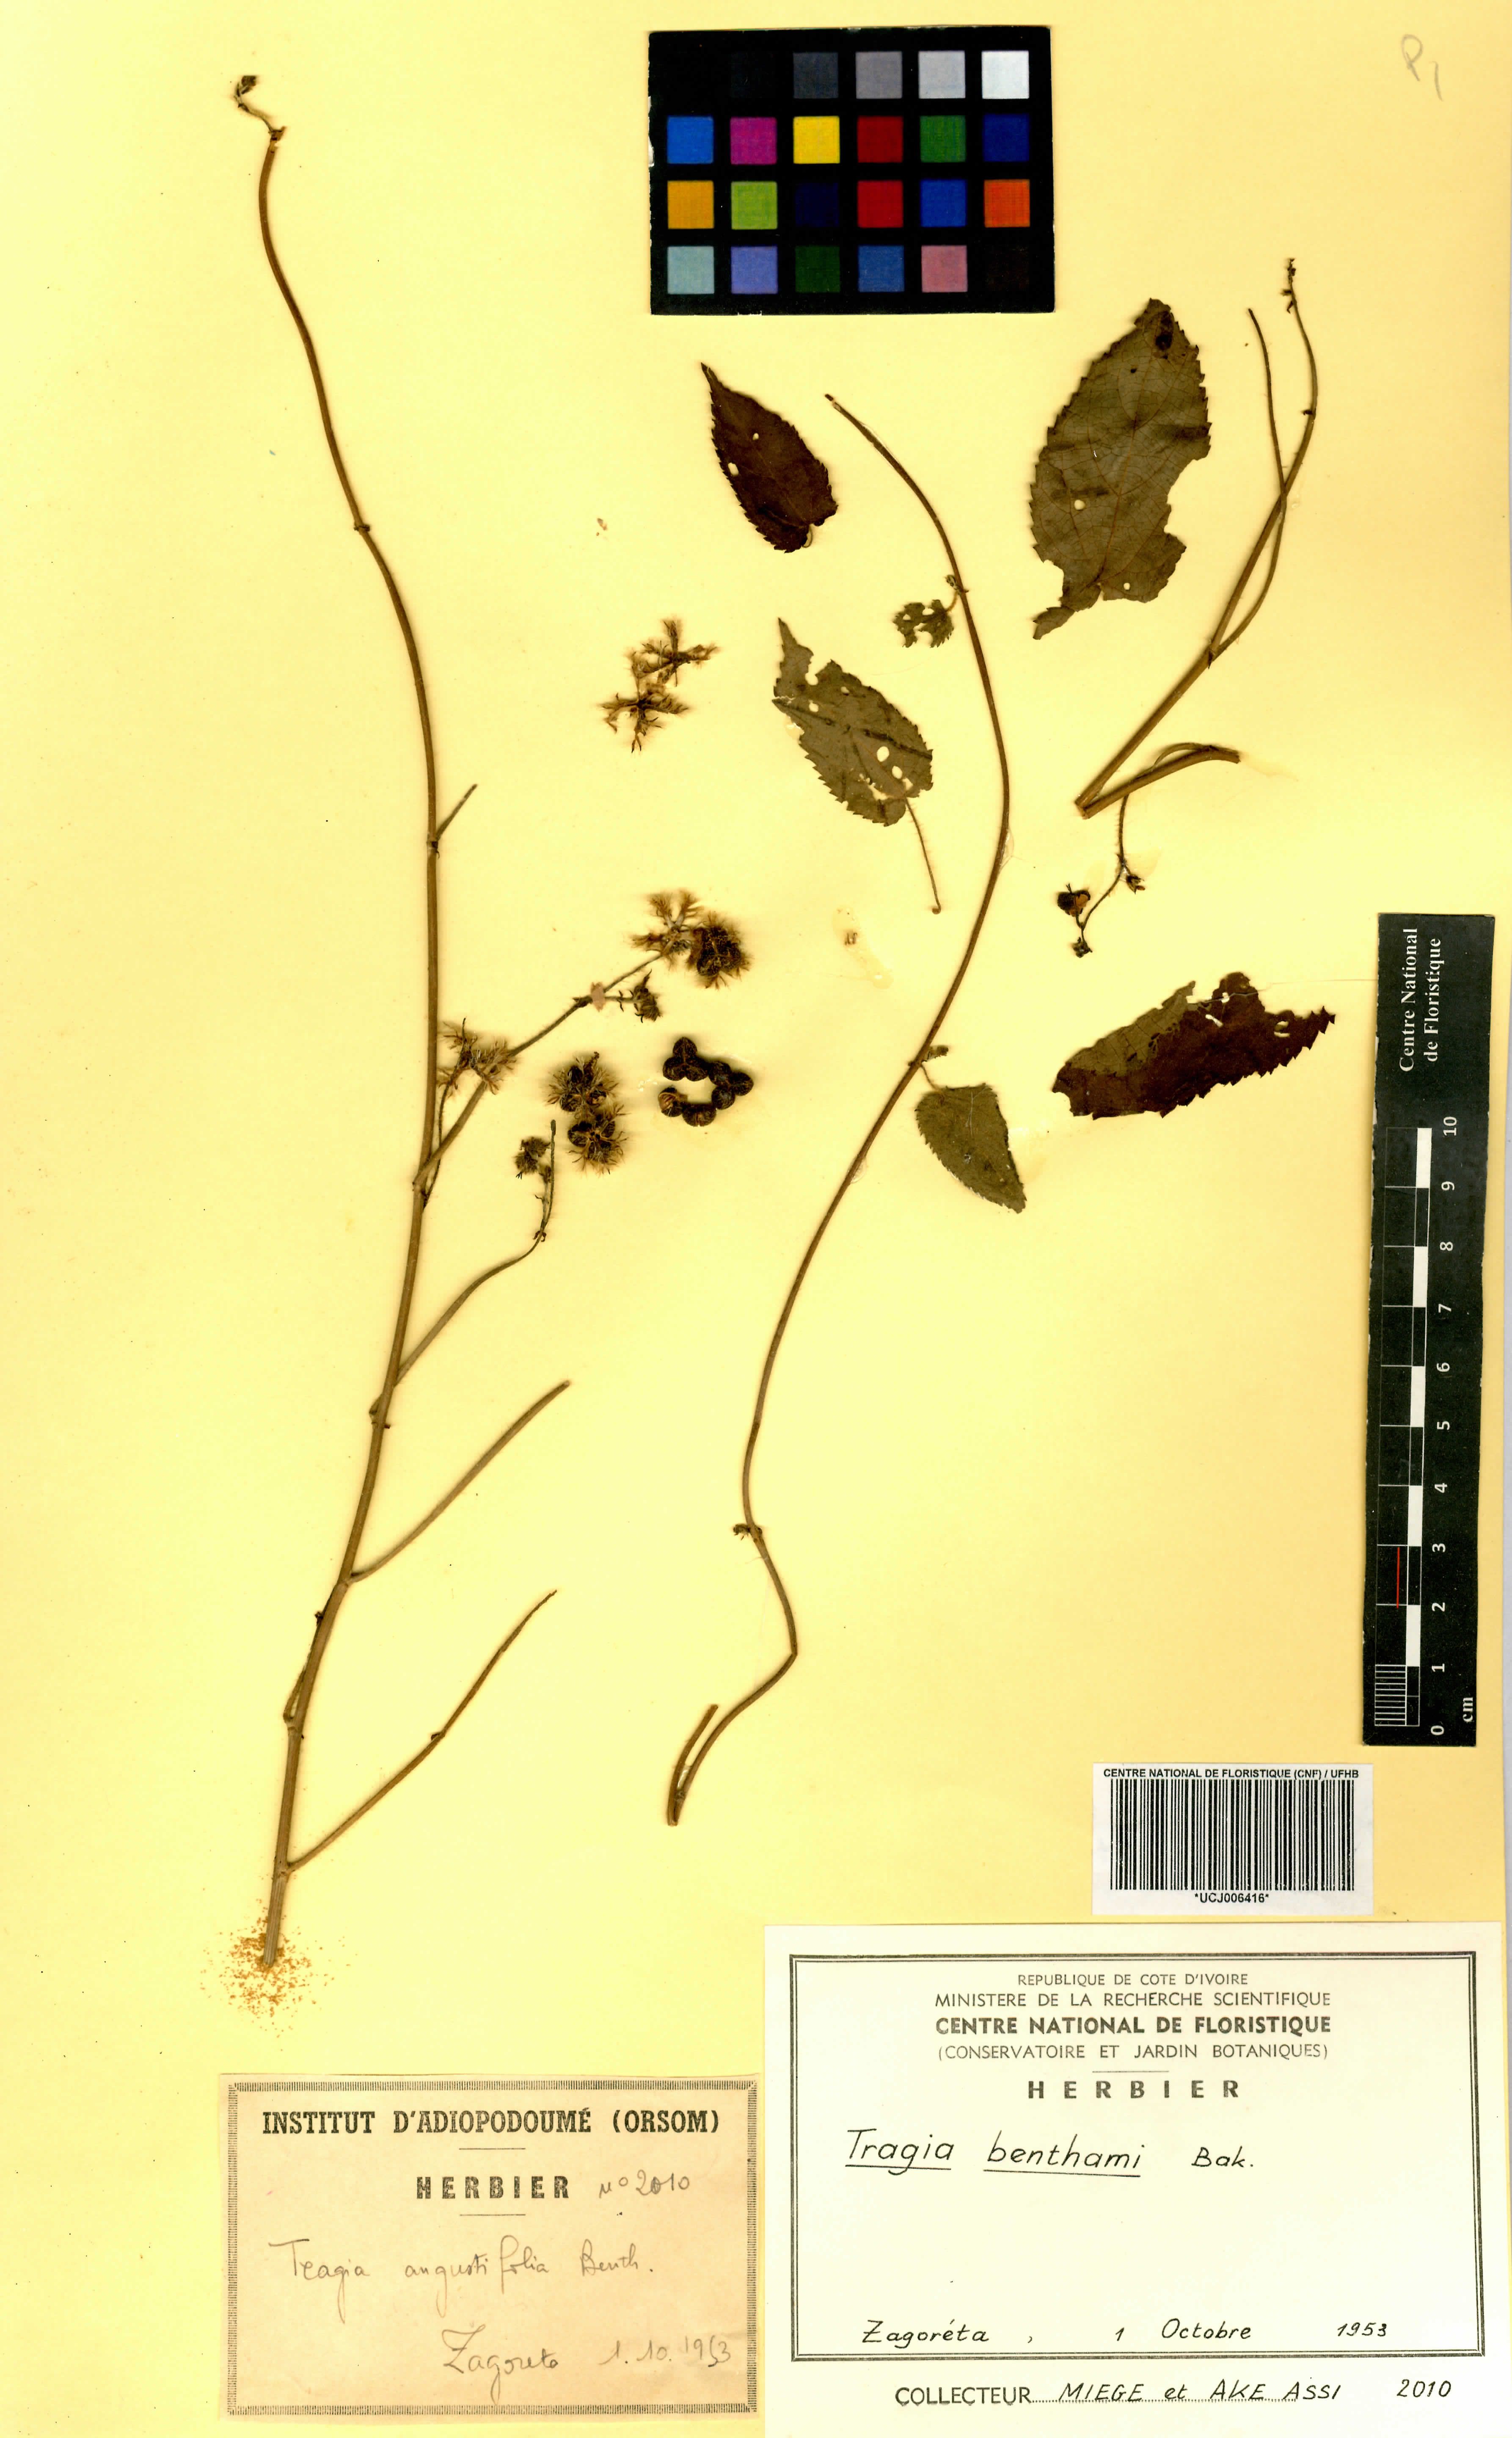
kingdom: Plantae
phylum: Tracheophyta
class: Magnoliopsida
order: Malpighiales
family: Euphorbiaceae
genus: Tragia
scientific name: Tragia benthamii
